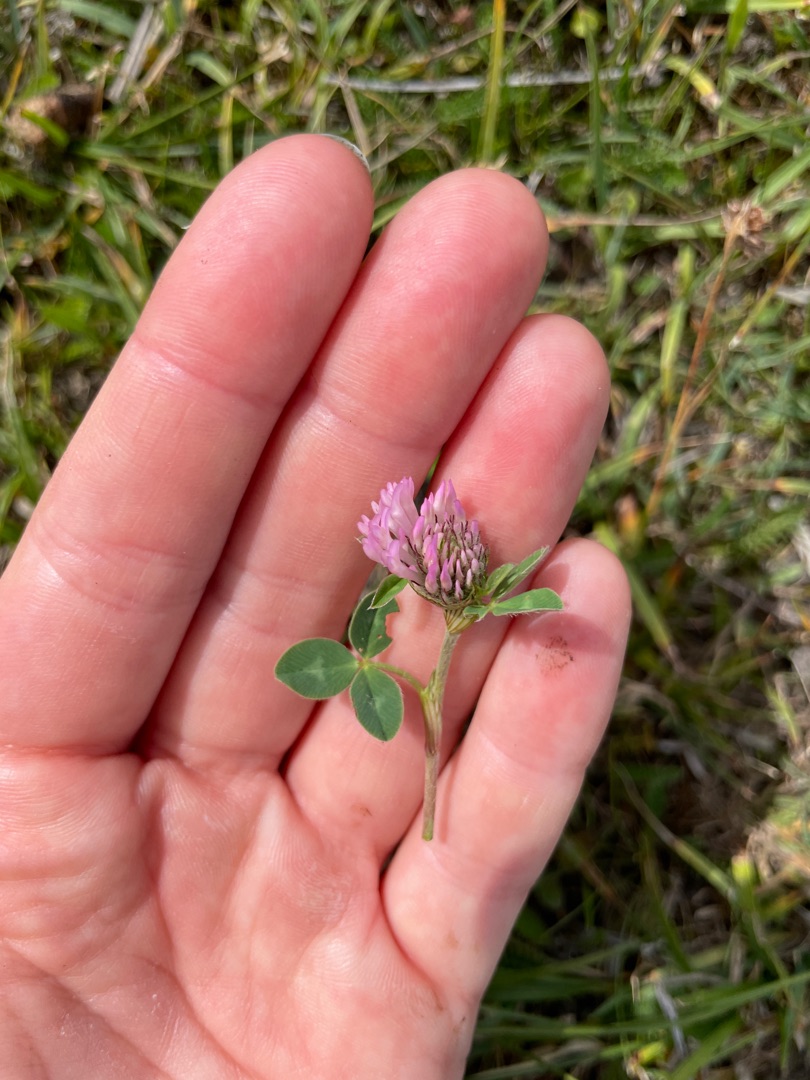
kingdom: Plantae
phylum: Tracheophyta
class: Magnoliopsida
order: Fabales
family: Fabaceae
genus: Trifolium
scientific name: Trifolium pratense
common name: Rød-kløver
